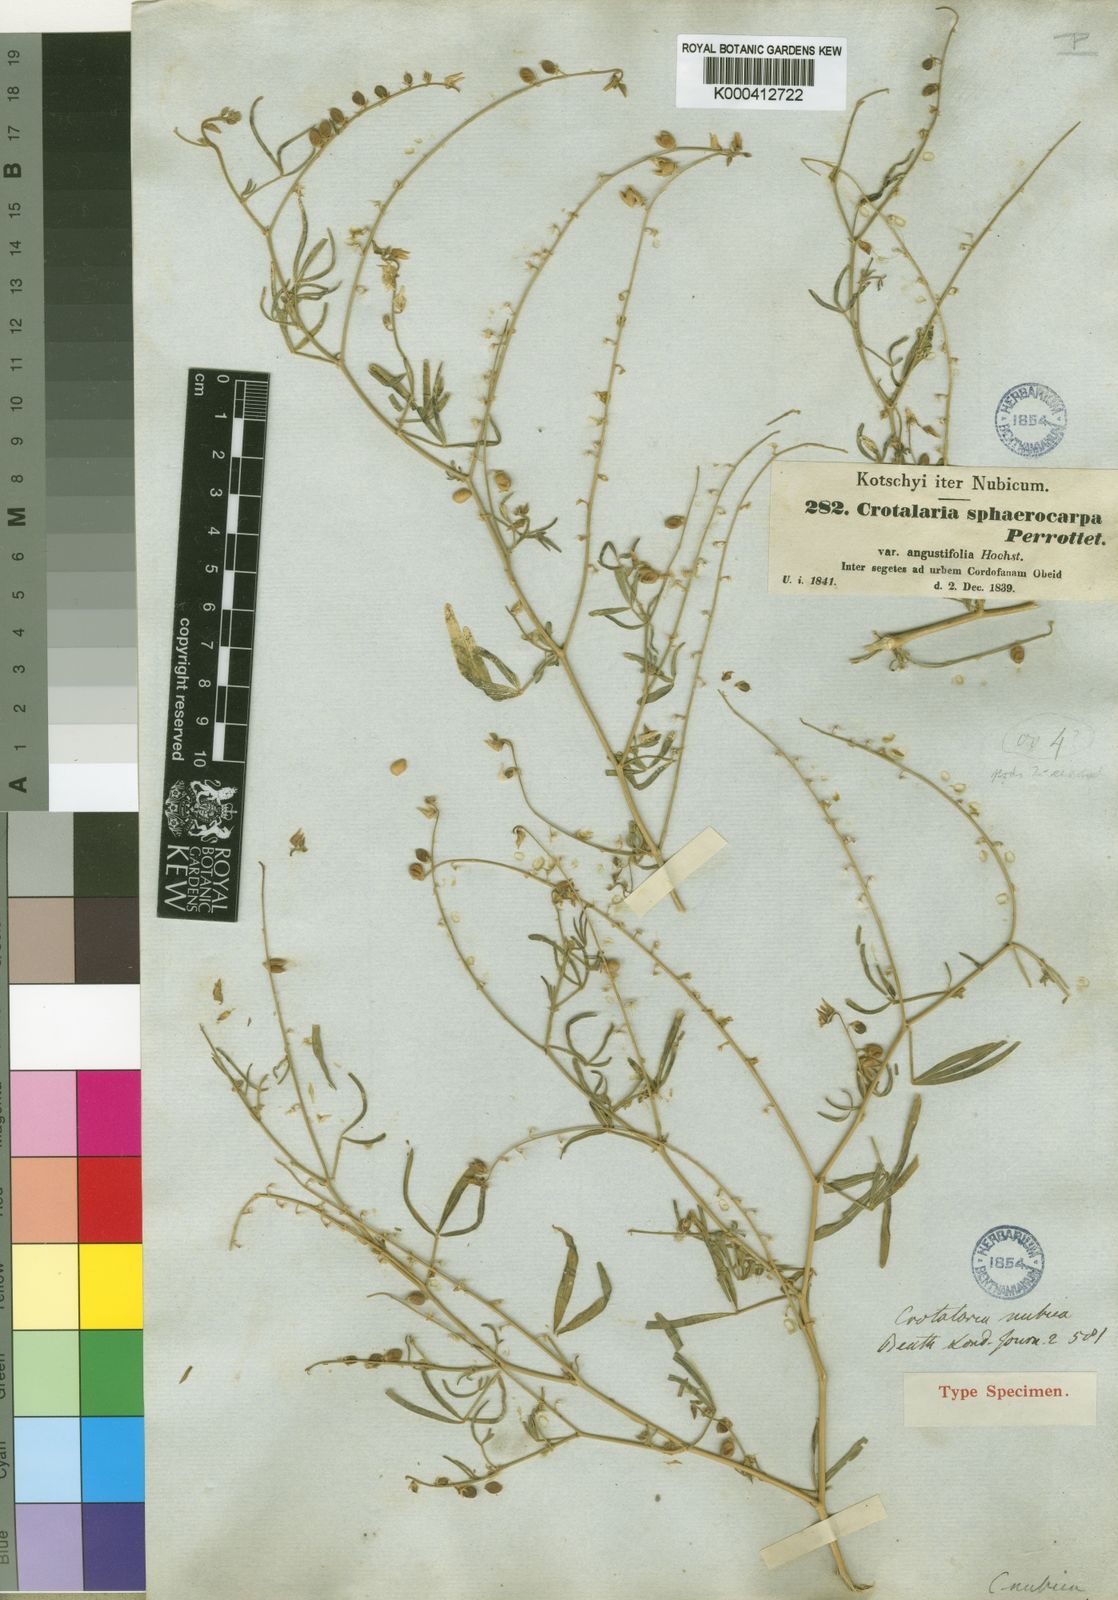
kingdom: Plantae
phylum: Tracheophyta
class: Magnoliopsida
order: Fabales
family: Fabaceae
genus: Crotalaria
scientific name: Crotalaria sphaerocarpa
